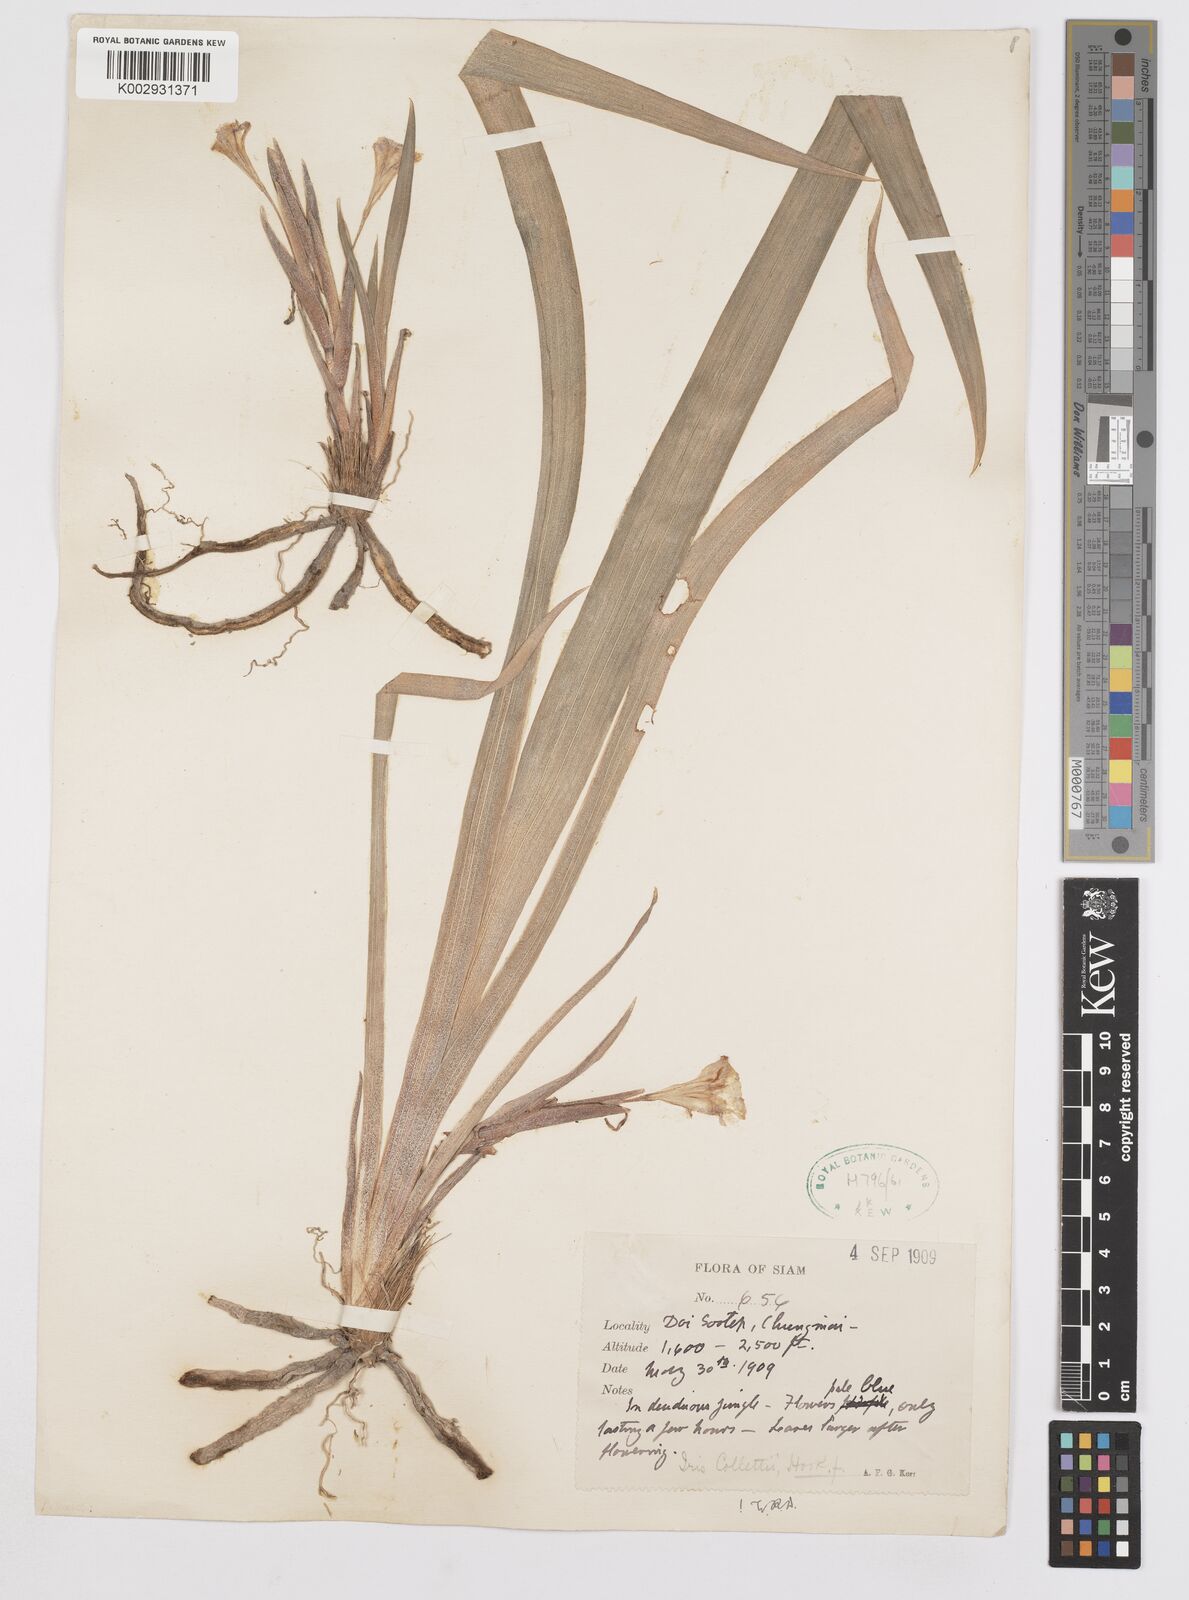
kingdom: Plantae
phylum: Tracheophyta
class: Liliopsida
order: Asparagales
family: Iridaceae
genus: Iris
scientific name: Iris collettii
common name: Plateau iris
